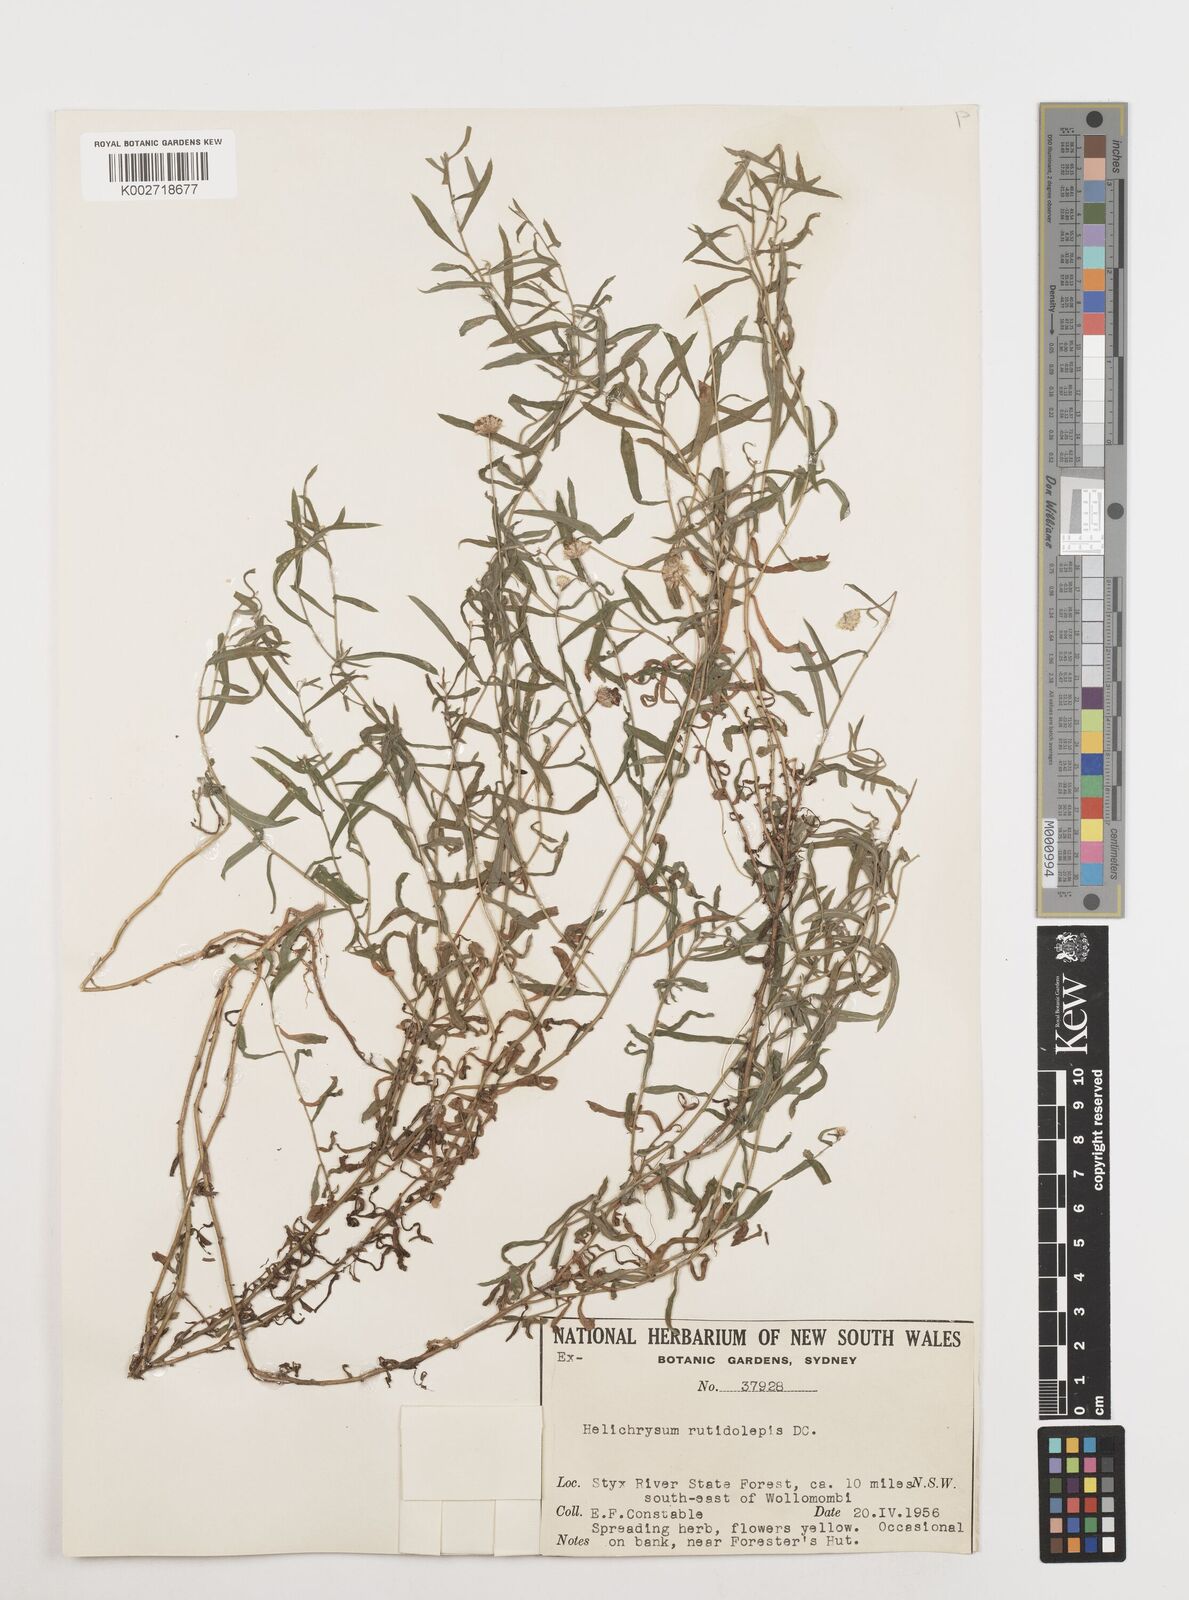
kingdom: Plantae
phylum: Tracheophyta
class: Magnoliopsida
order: Asterales
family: Asteraceae
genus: Coronidium
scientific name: Coronidium rutidolepis
